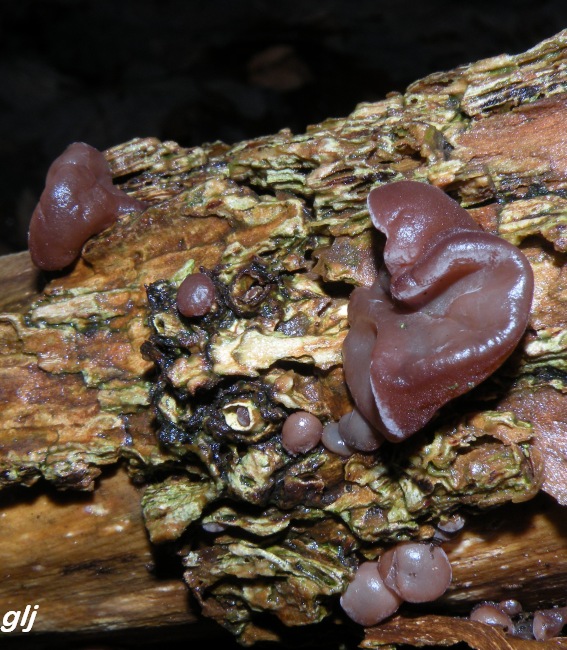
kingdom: Fungi
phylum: Basidiomycota
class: Agaricomycetes
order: Auriculariales
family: Auriculariaceae
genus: Auricularia
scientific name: Auricularia auricula-judae
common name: almindelig judasøre
